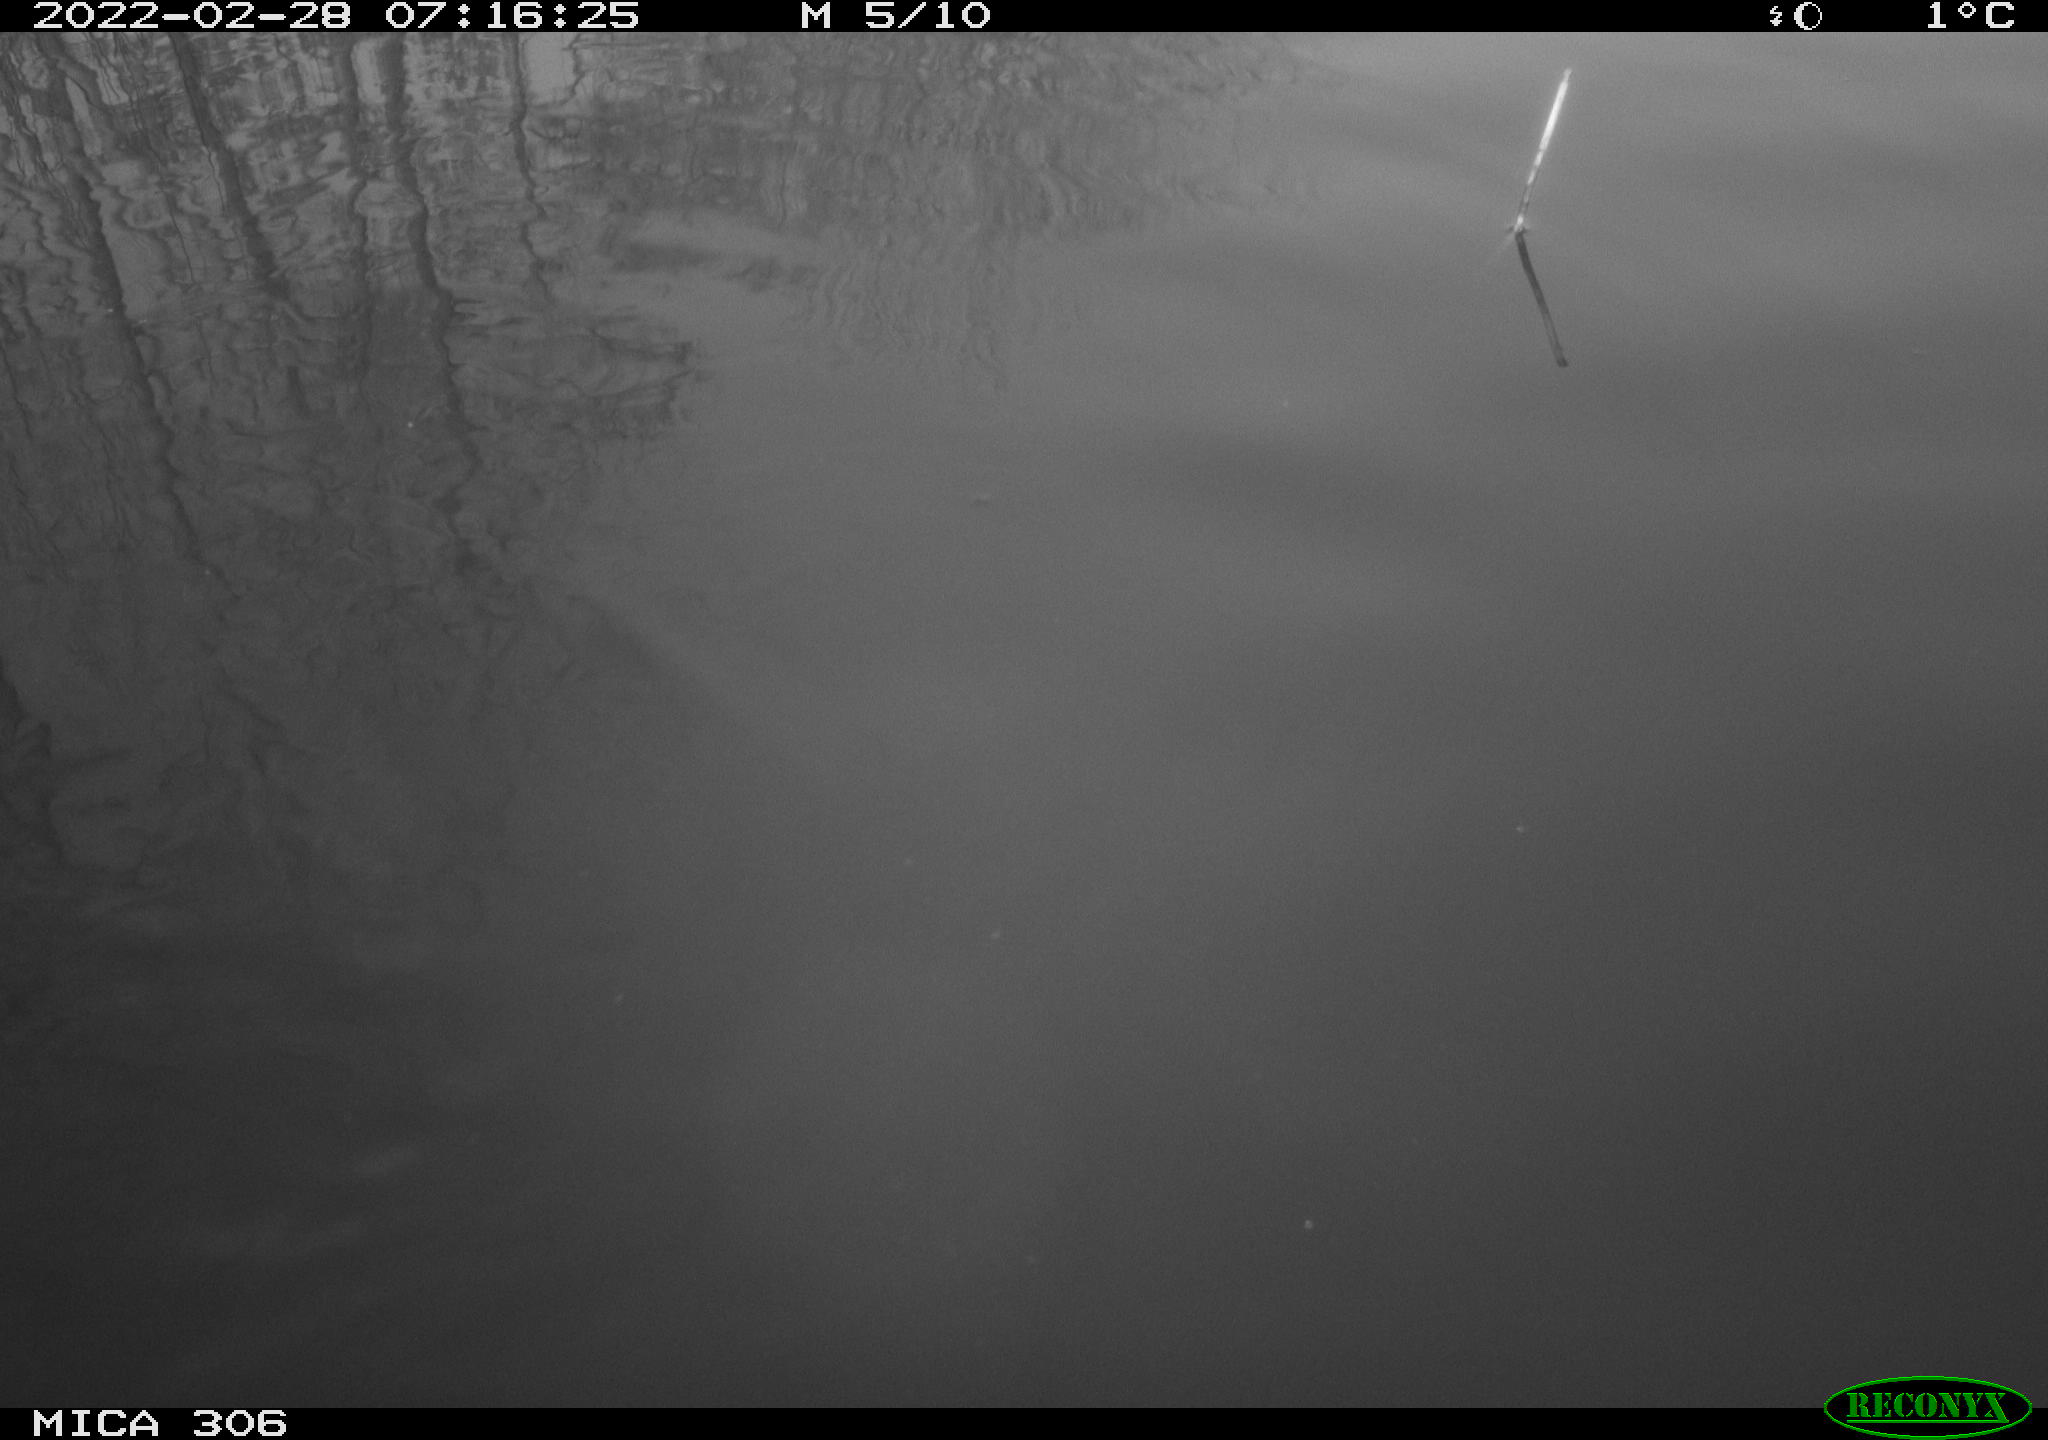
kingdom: Animalia
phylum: Chordata
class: Aves
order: Gruiformes
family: Rallidae
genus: Gallinula
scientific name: Gallinula chloropus
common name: Common moorhen
